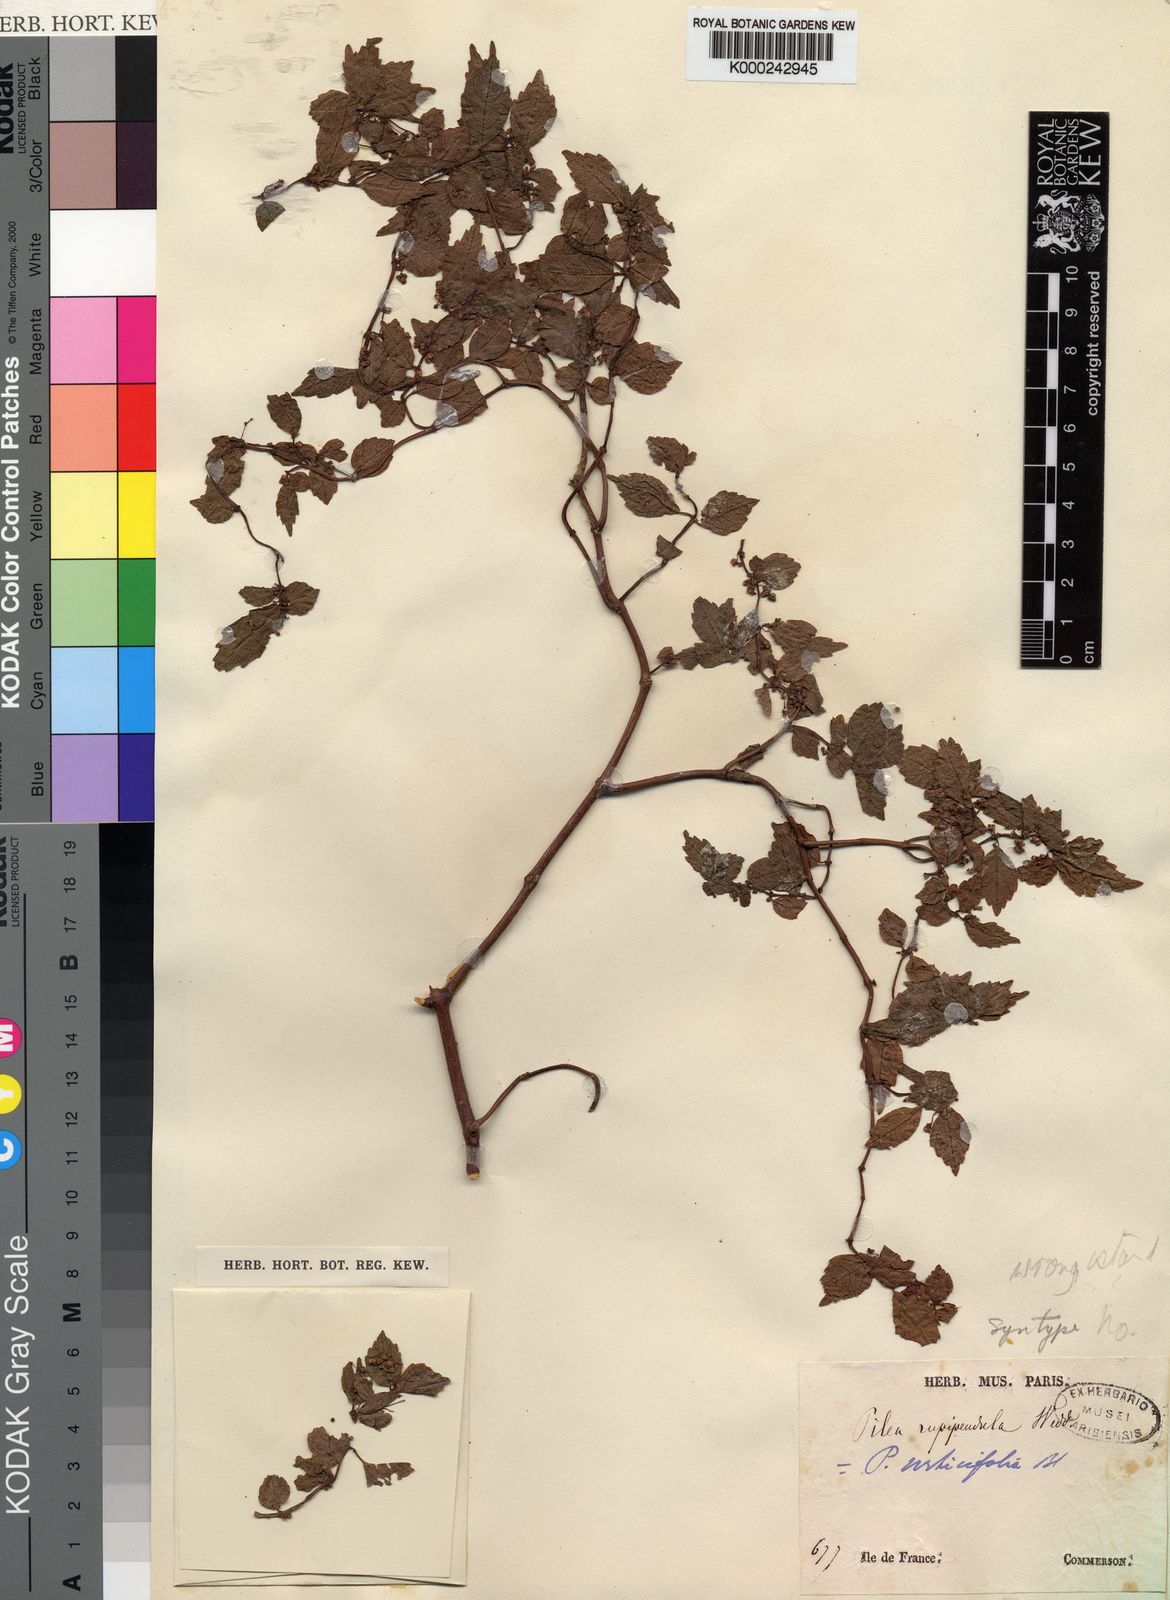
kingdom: Plantae
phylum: Tracheophyta
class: Magnoliopsida
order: Rosales
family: Urticaceae
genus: Pilea
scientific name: Pilea urticifolia
